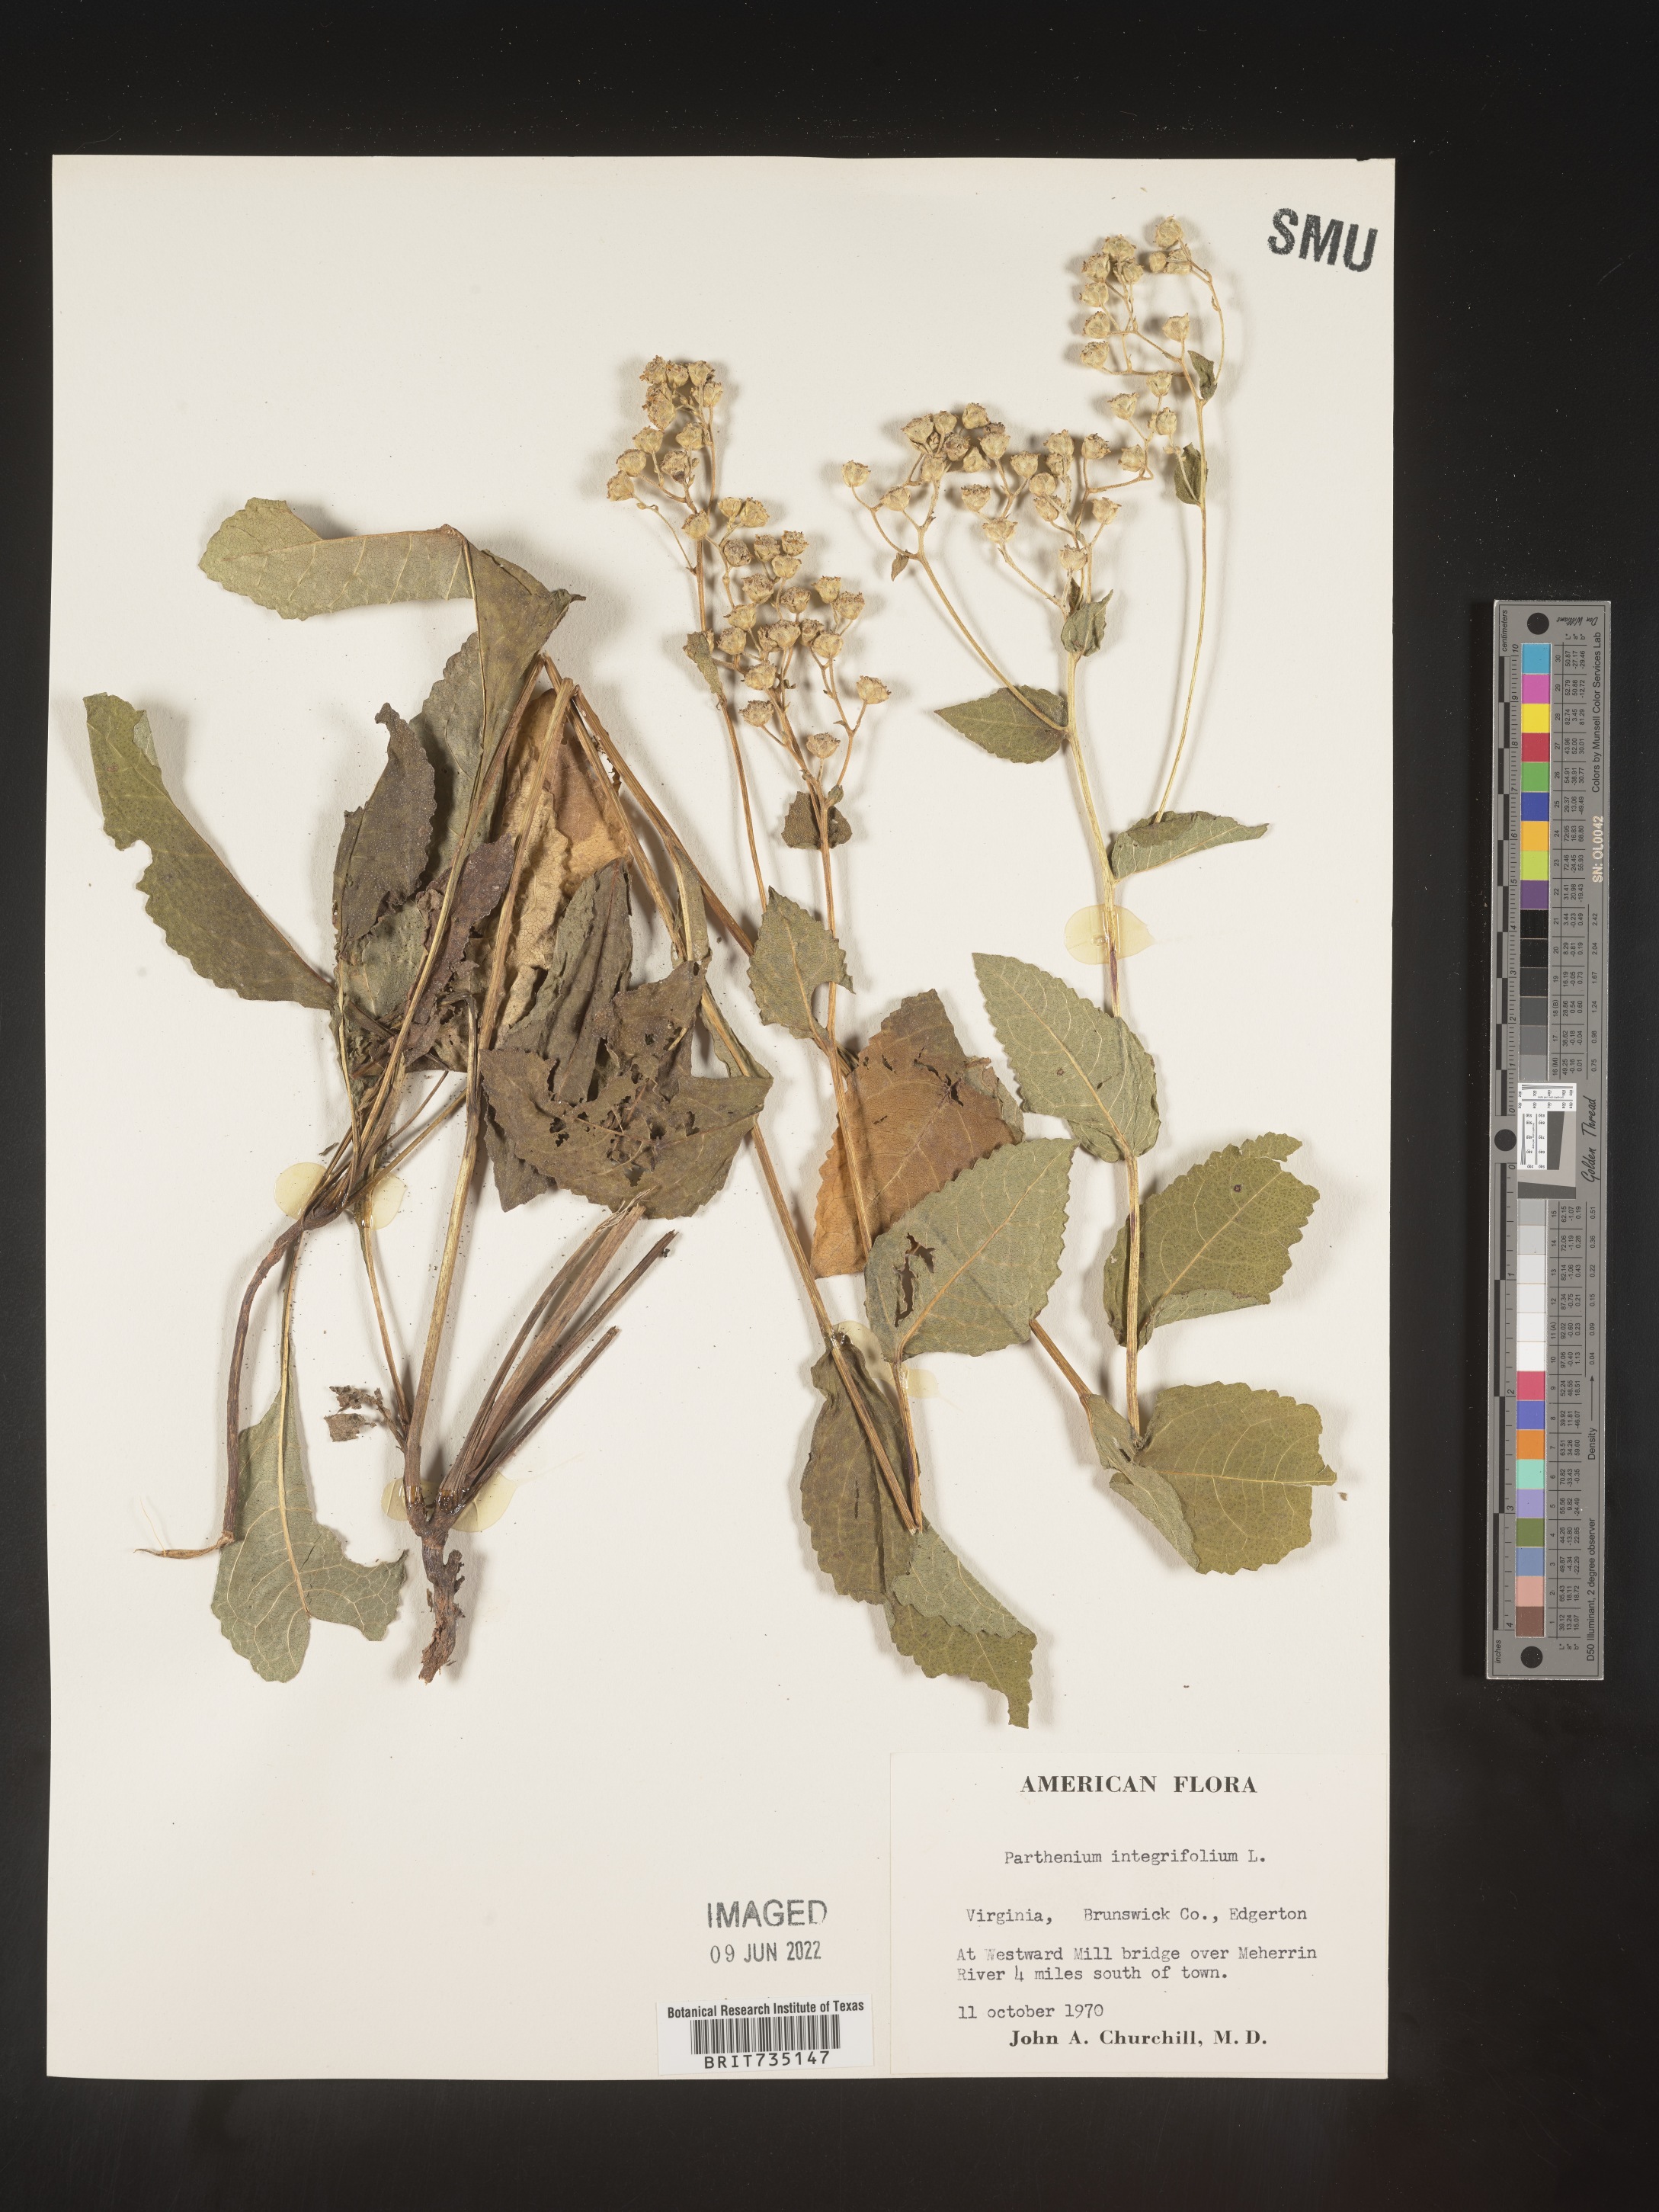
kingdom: Plantae
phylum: Tracheophyta
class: Magnoliopsida
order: Asterales
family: Asteraceae
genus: Parthenium
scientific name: Parthenium integrifolium
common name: American feverfew
